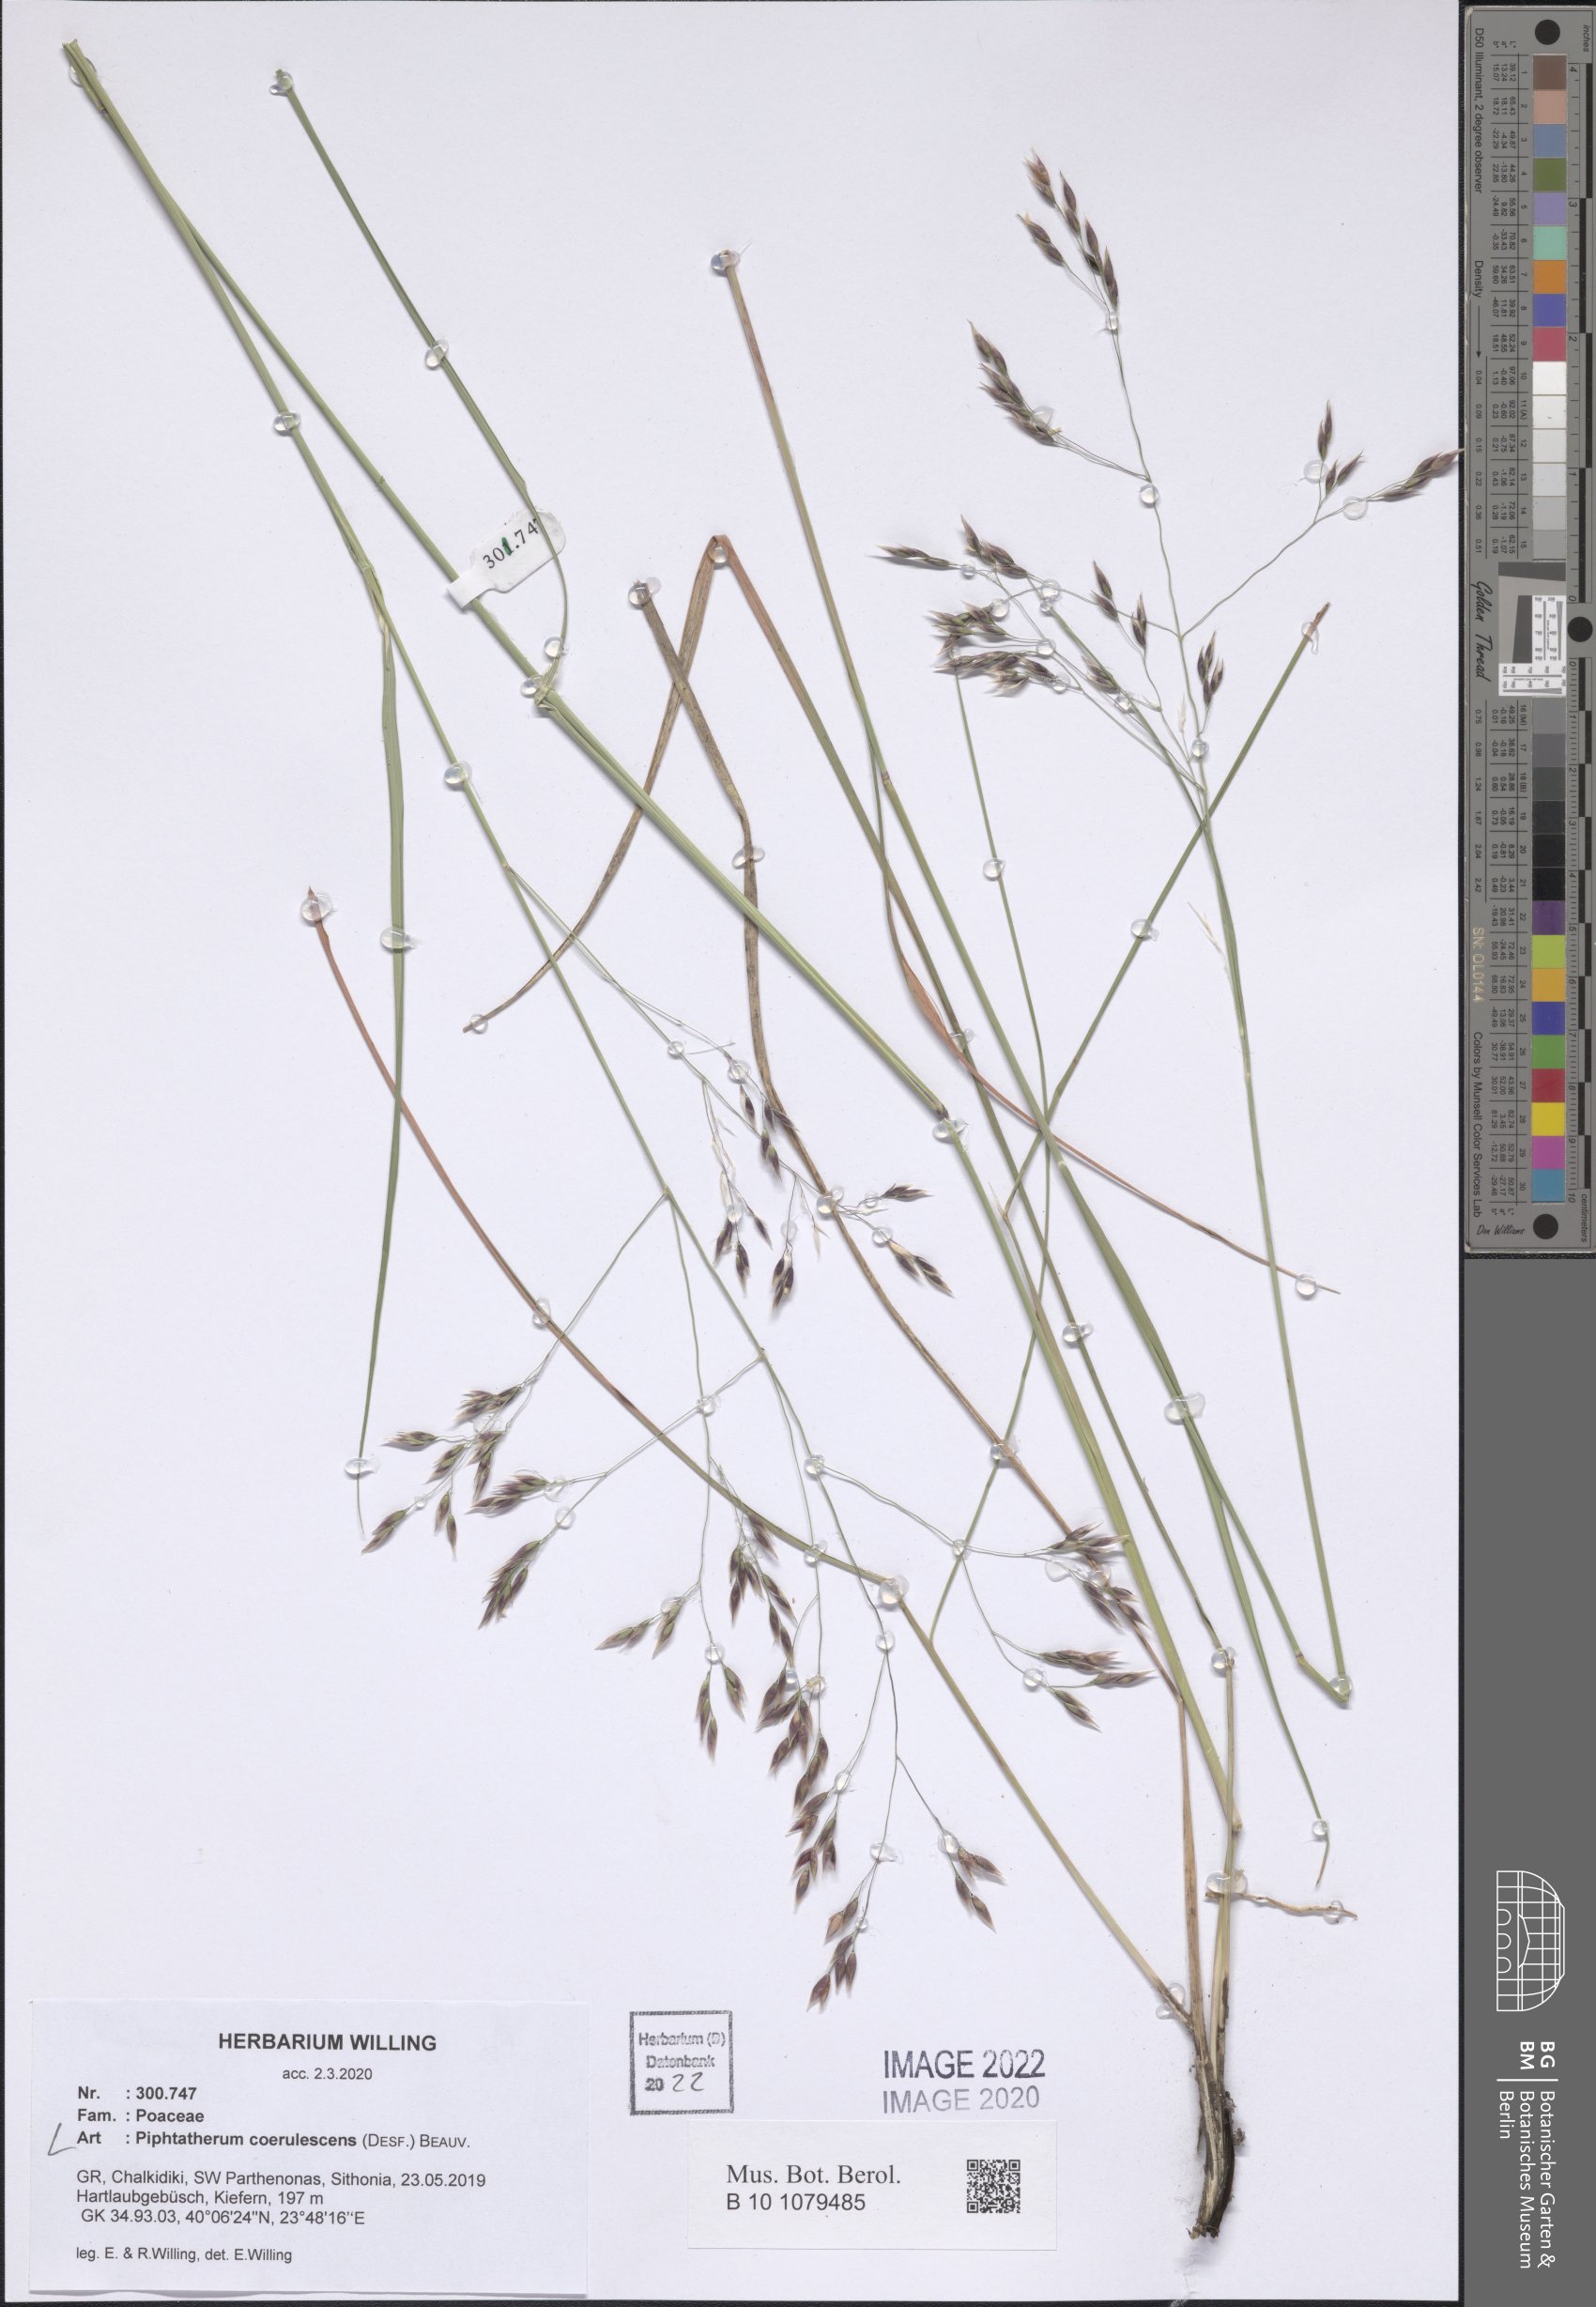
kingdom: Plantae
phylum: Tracheophyta
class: Liliopsida
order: Poales
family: Poaceae
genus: Piptatherum
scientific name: Piptatherum coerulescens
